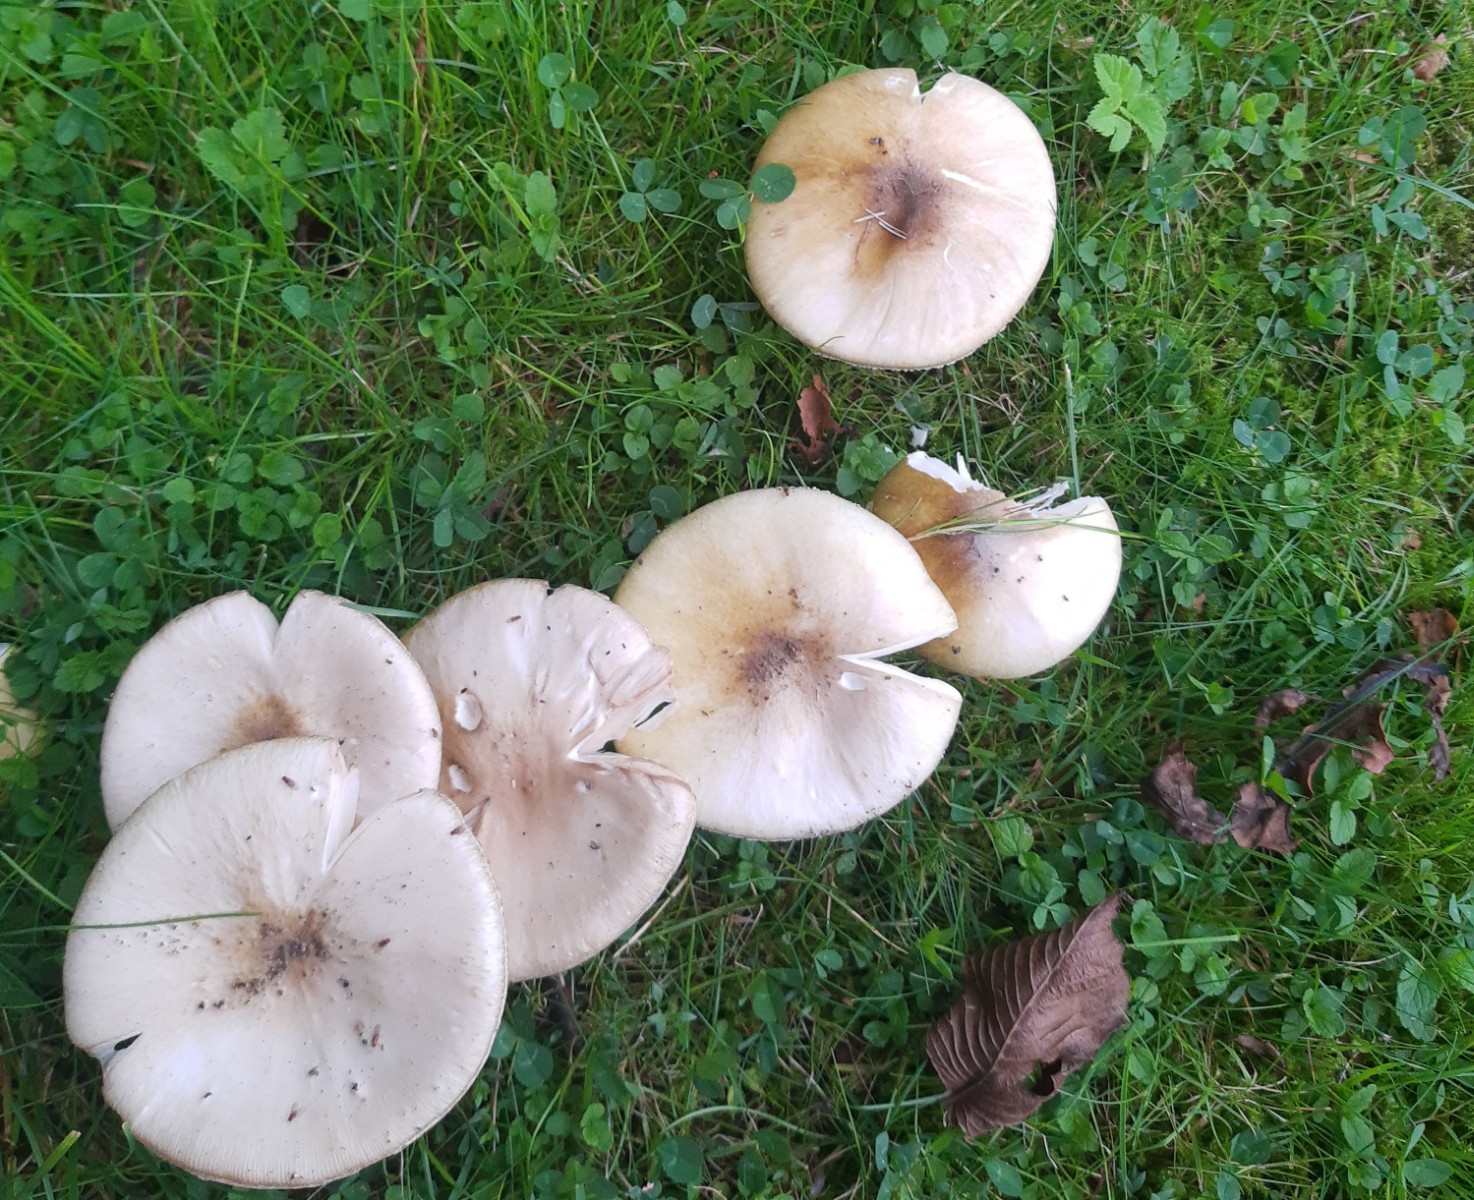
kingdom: Fungi
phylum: Basidiomycota
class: Agaricomycetes
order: Agaricales
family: Amanitaceae
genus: Amanita
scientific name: Amanita phalloides
